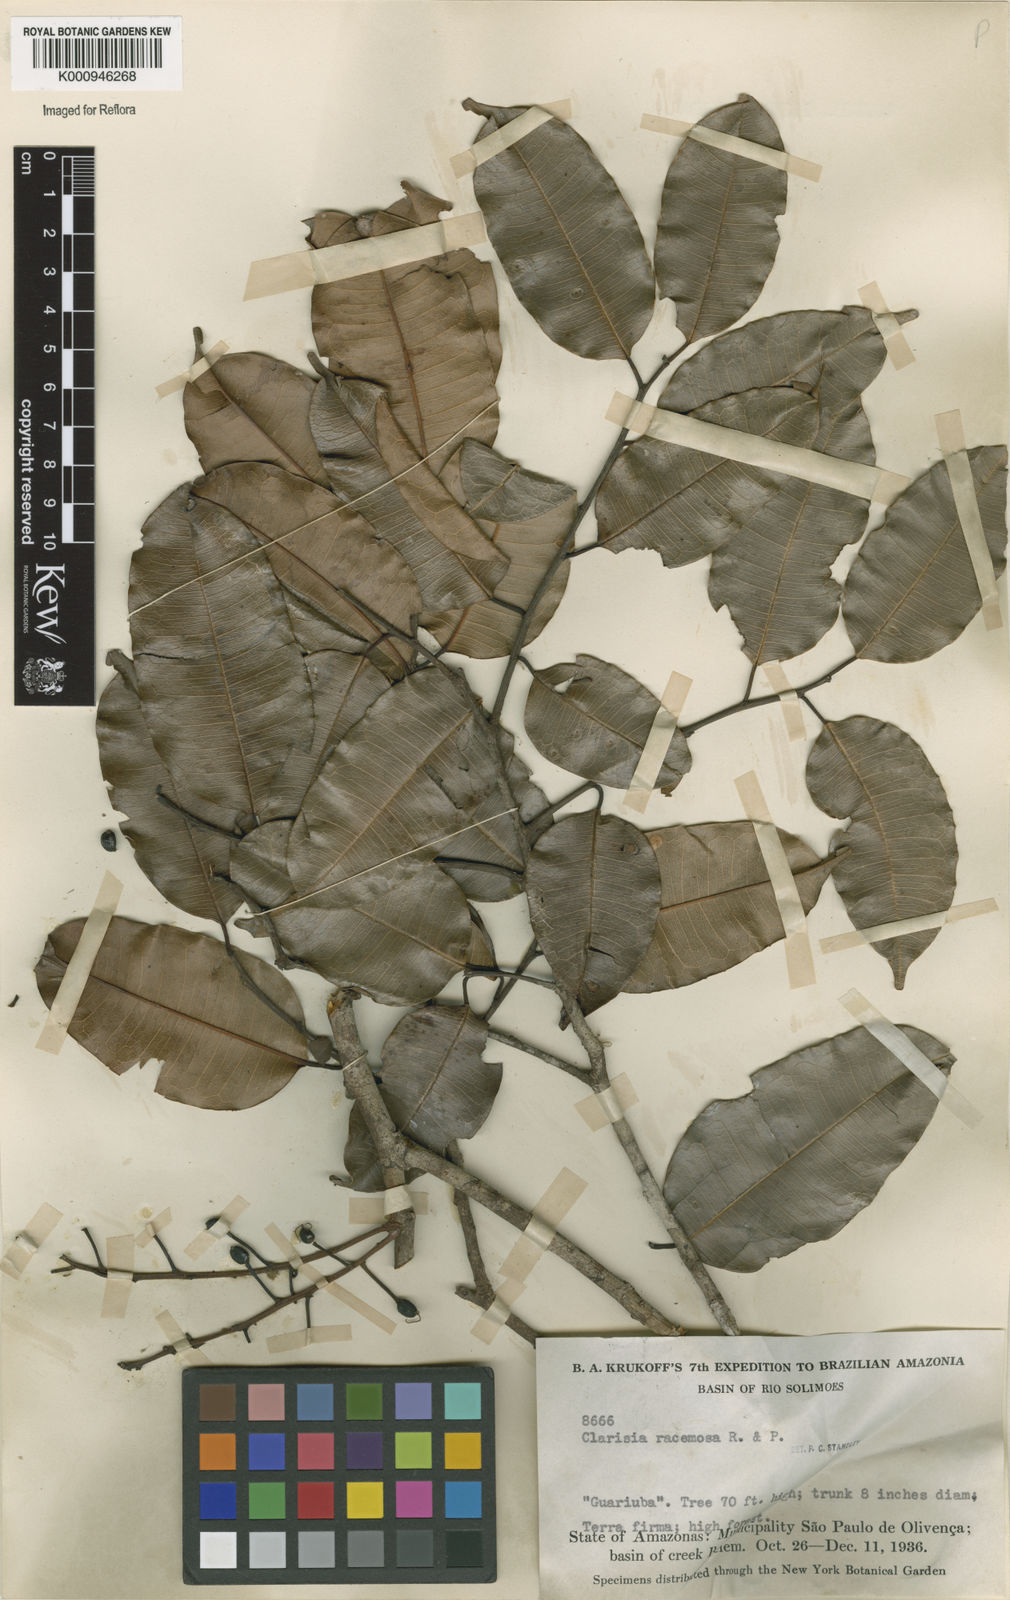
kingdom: Plantae
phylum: Tracheophyta
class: Magnoliopsida
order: Rosales
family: Moraceae
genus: Clarisia
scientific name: Clarisia racemosa
